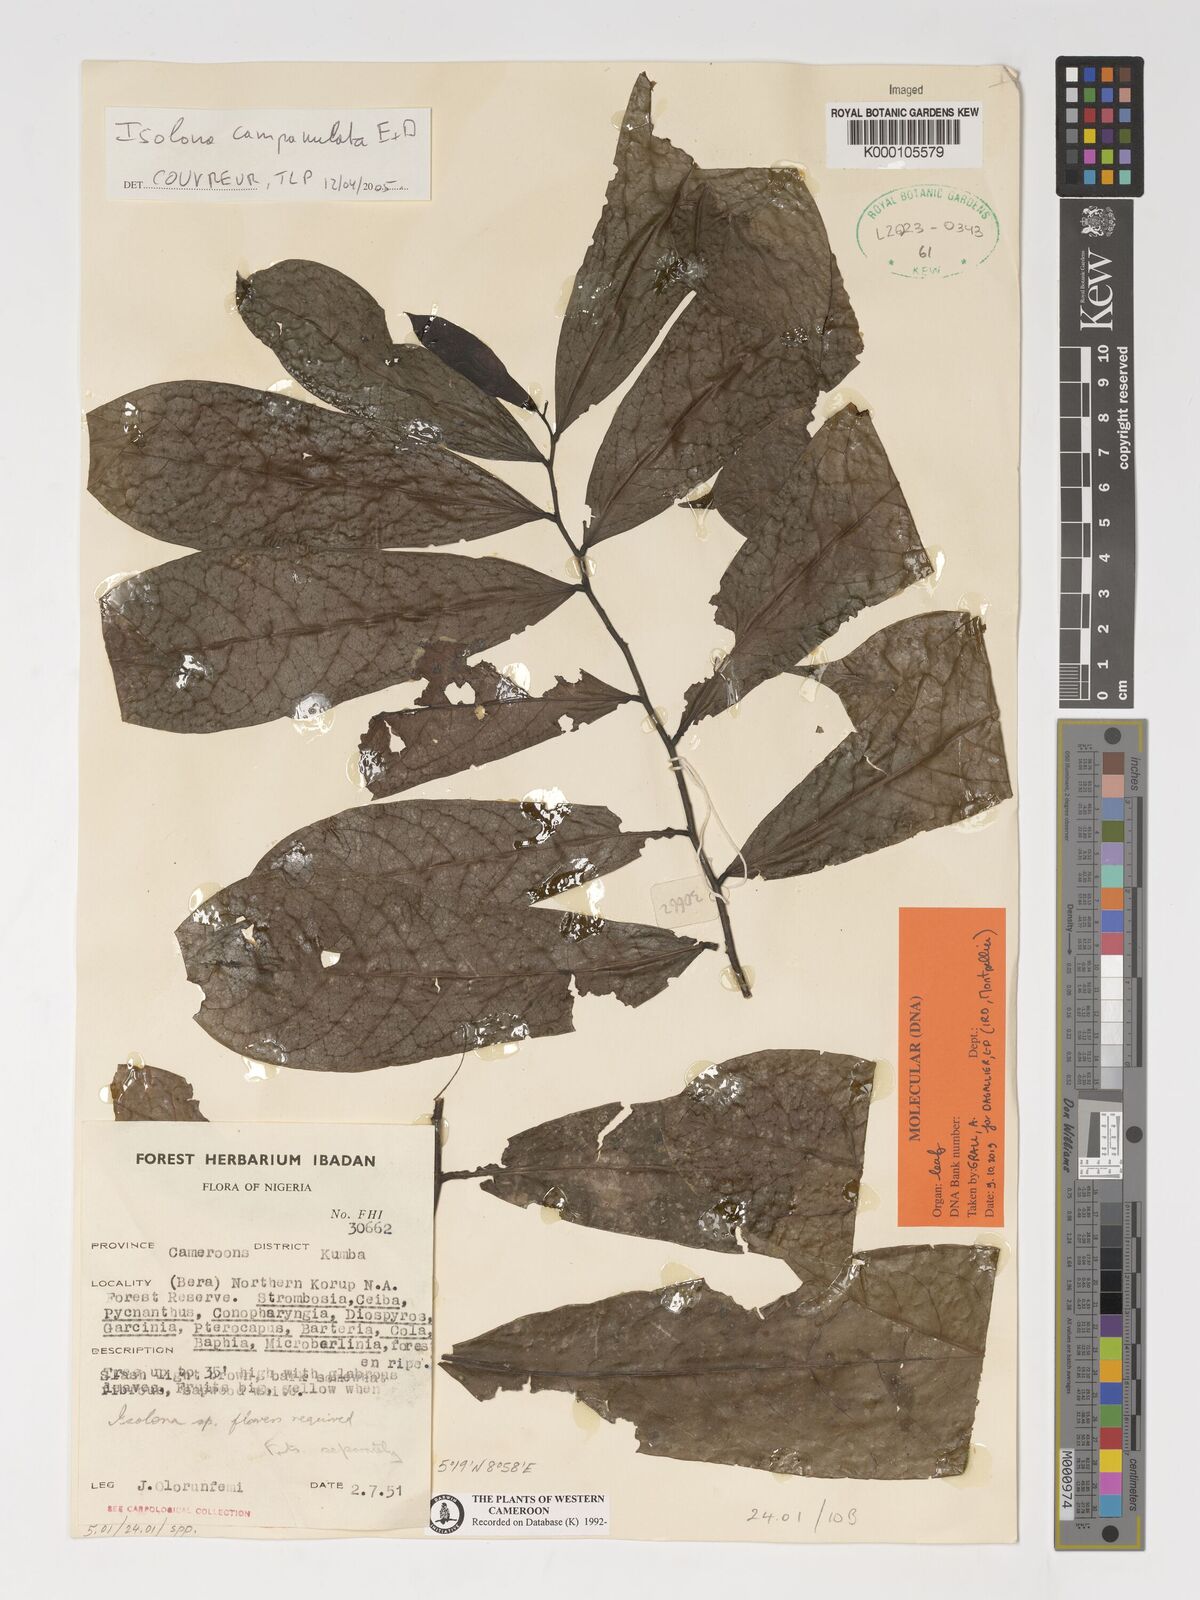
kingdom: Plantae
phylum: Tracheophyta
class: Magnoliopsida
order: Magnoliales
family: Annonaceae
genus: Isolona
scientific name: Isolona campanulata
